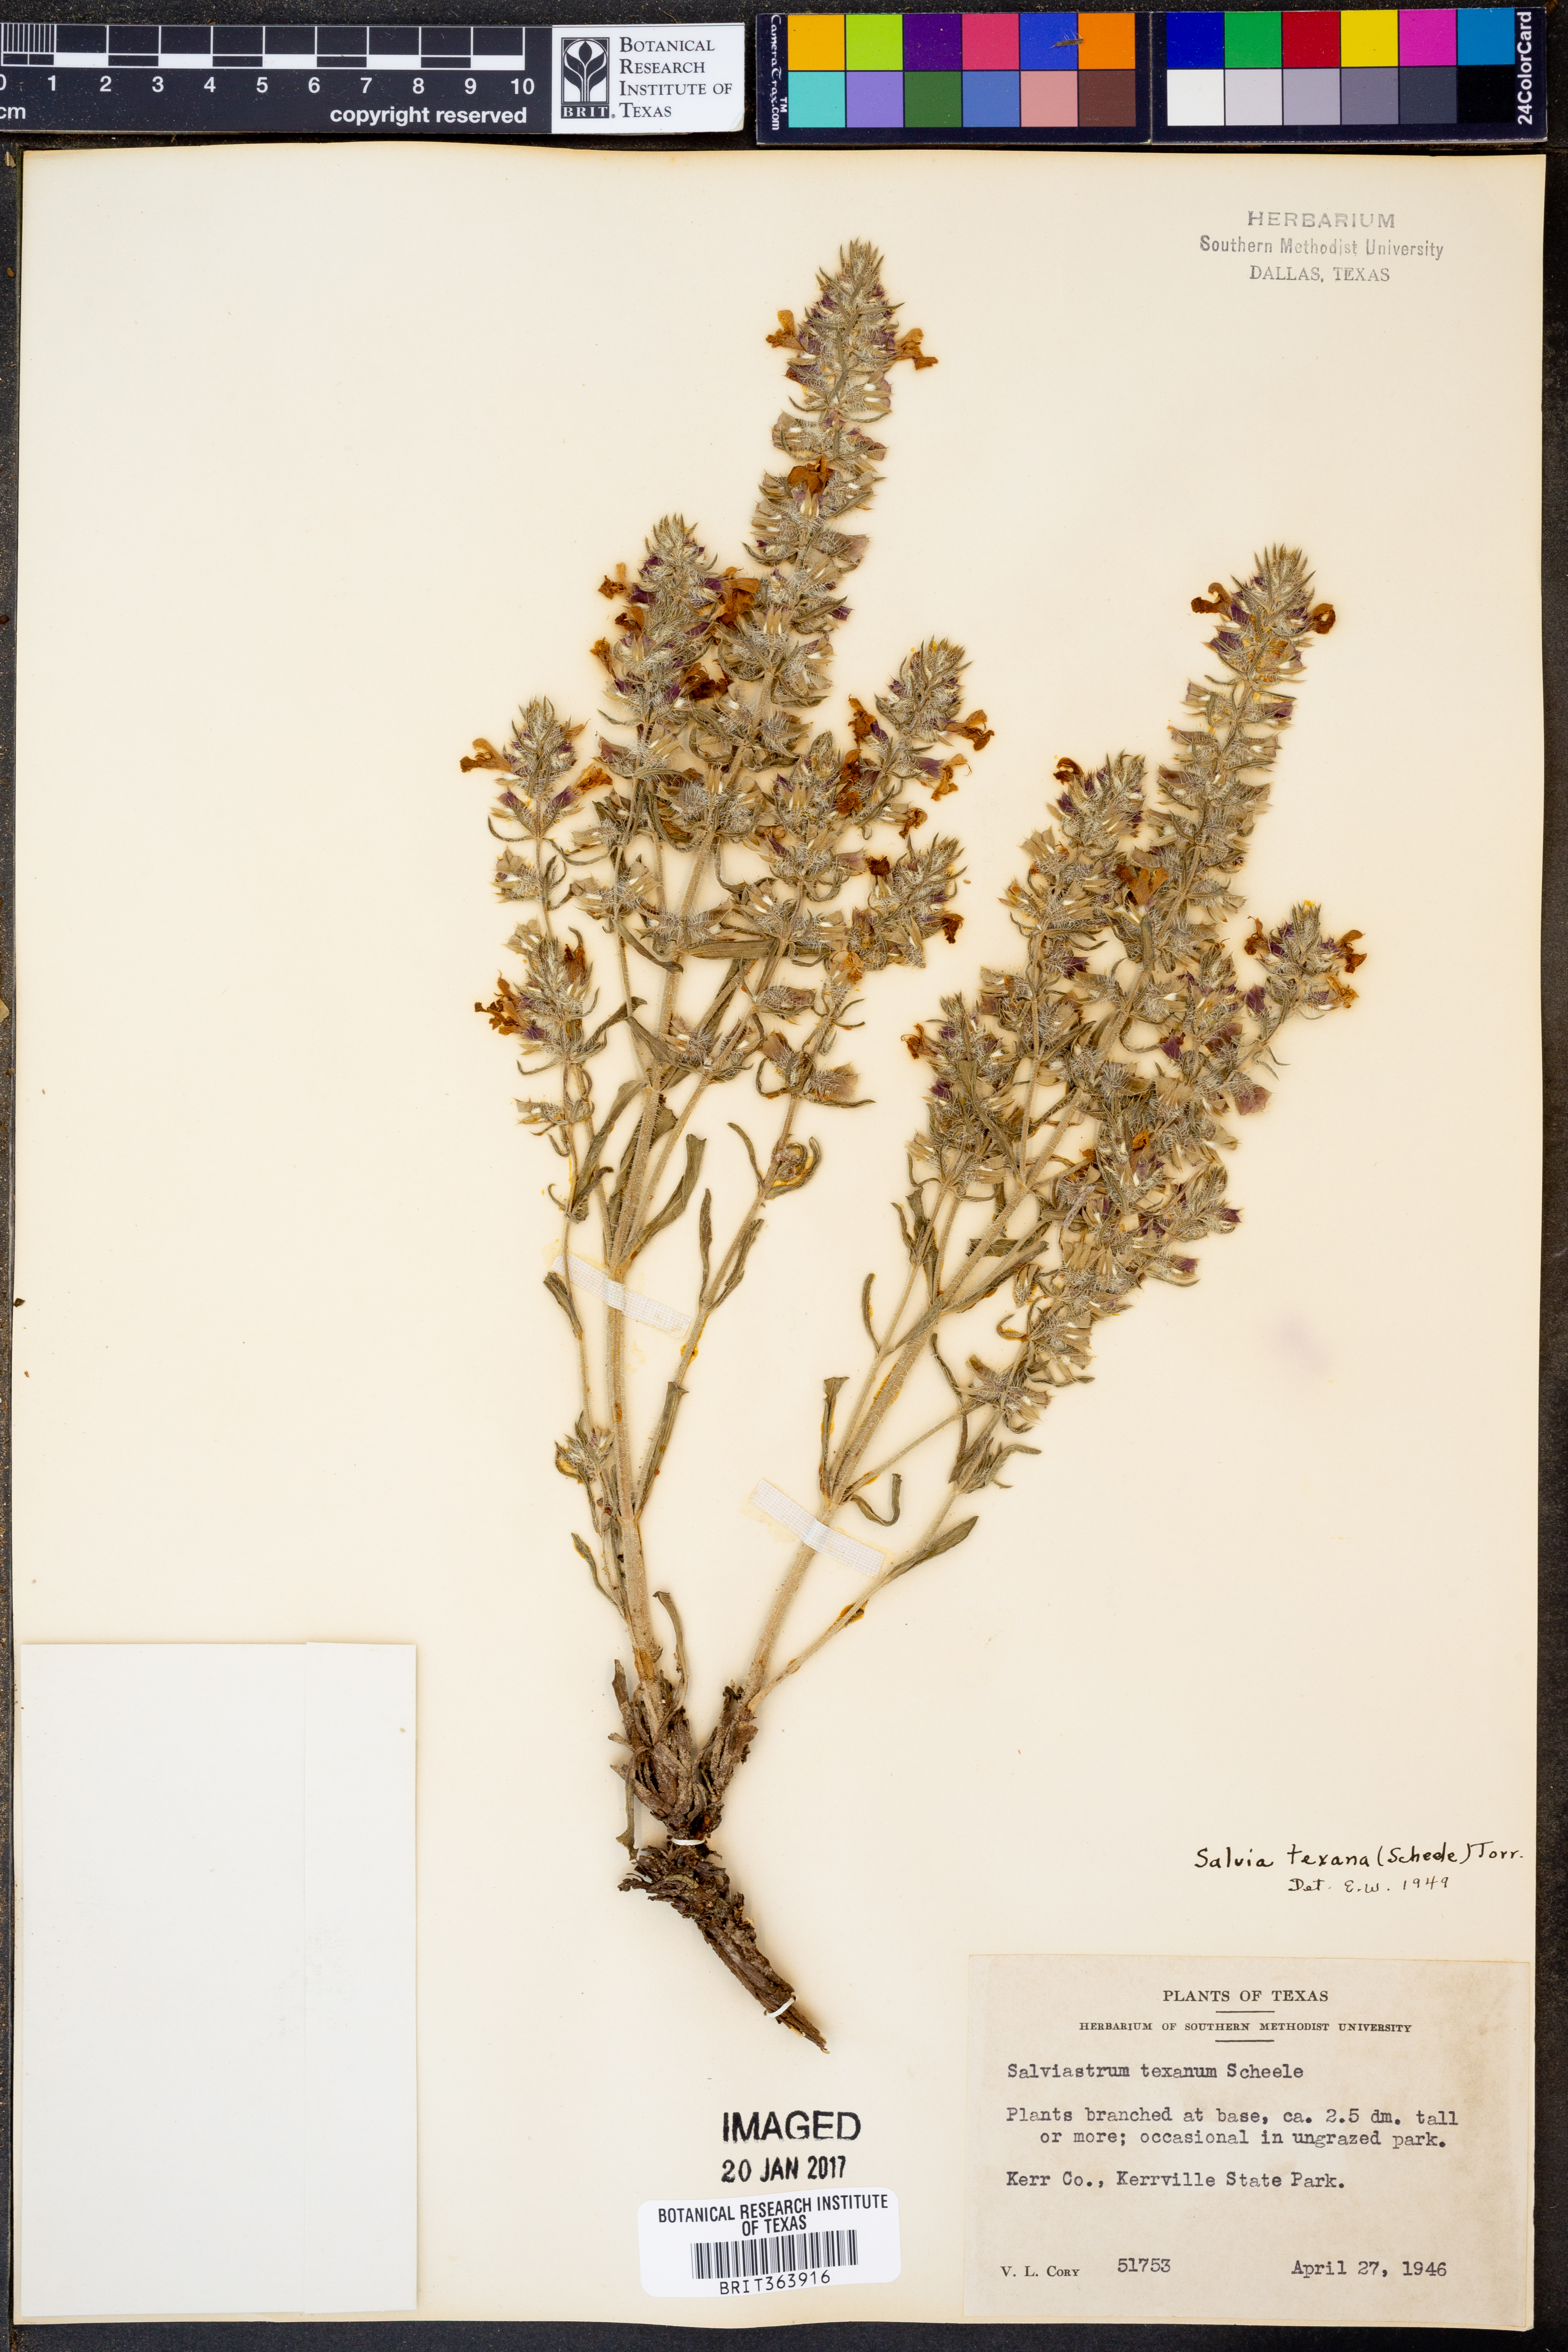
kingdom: Plantae
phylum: Tracheophyta
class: Magnoliopsida
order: Lamiales
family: Lamiaceae
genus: Salvia
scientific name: Salvia texana
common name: Texas sage
